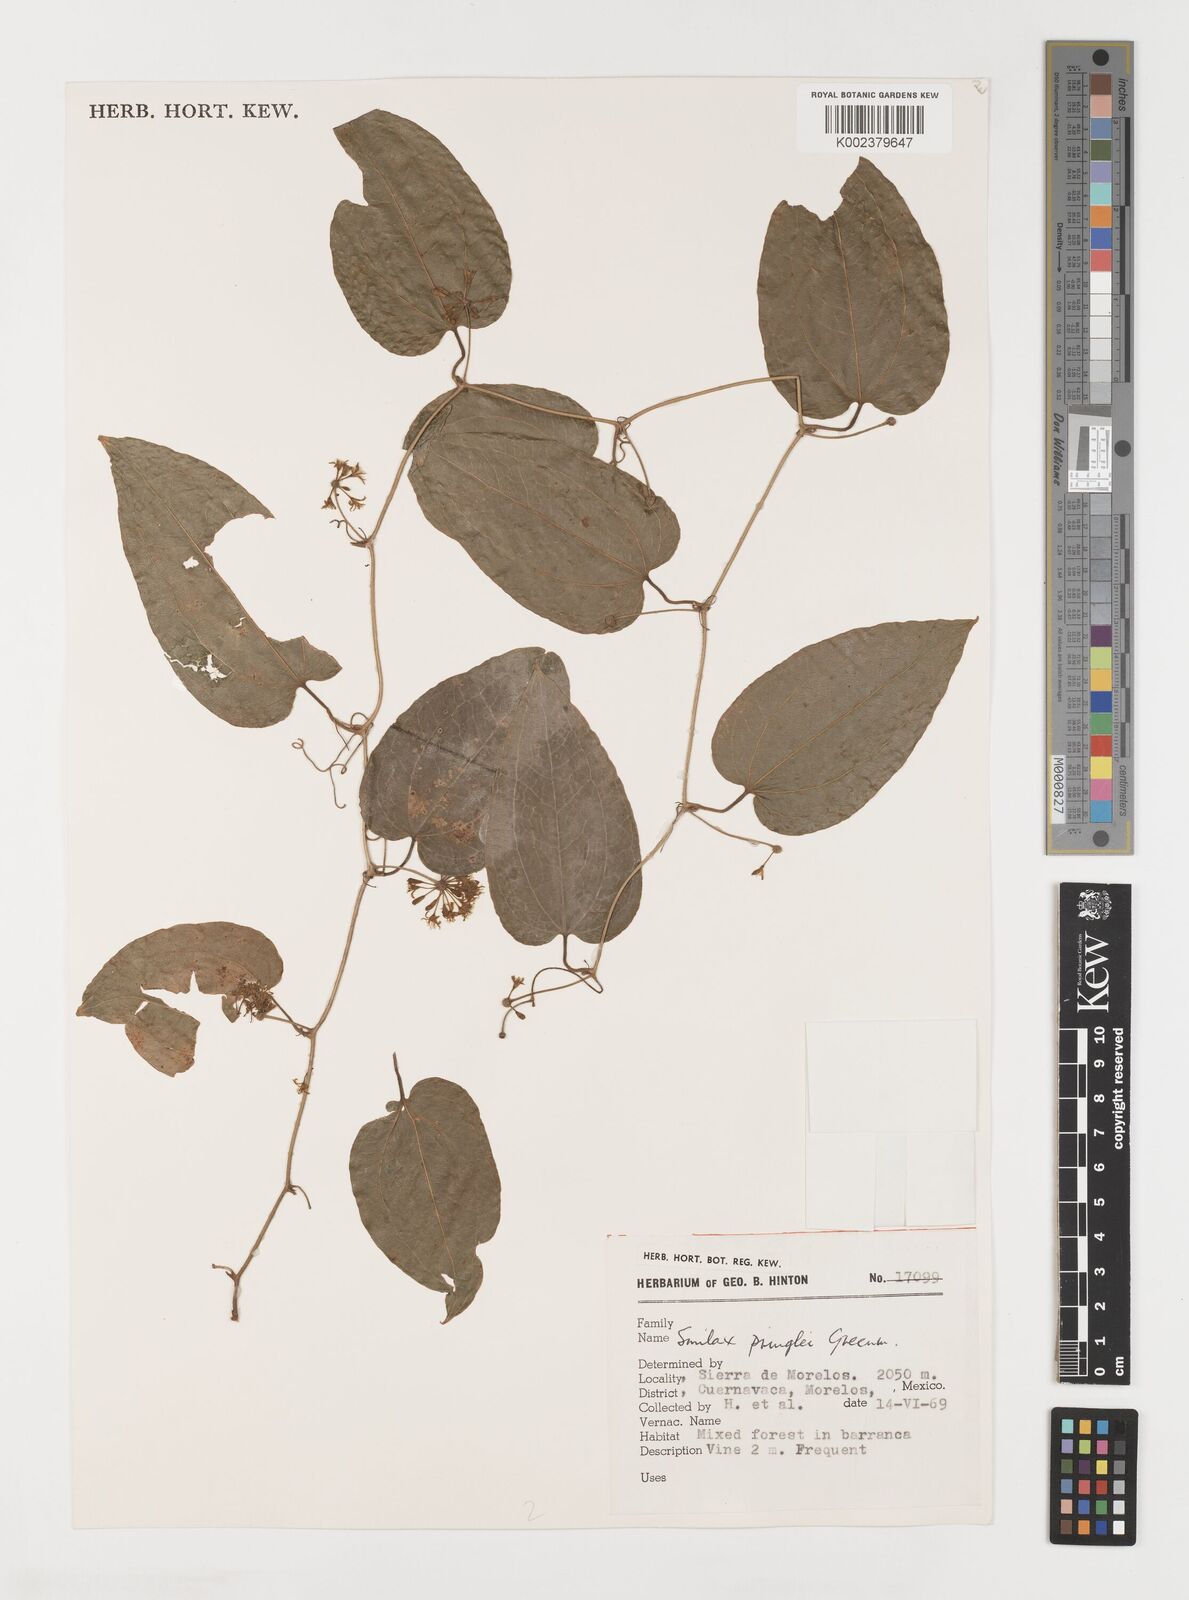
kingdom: Plantae
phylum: Tracheophyta
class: Liliopsida
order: Liliales
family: Smilacaceae
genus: Smilax
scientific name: Smilax mollis
